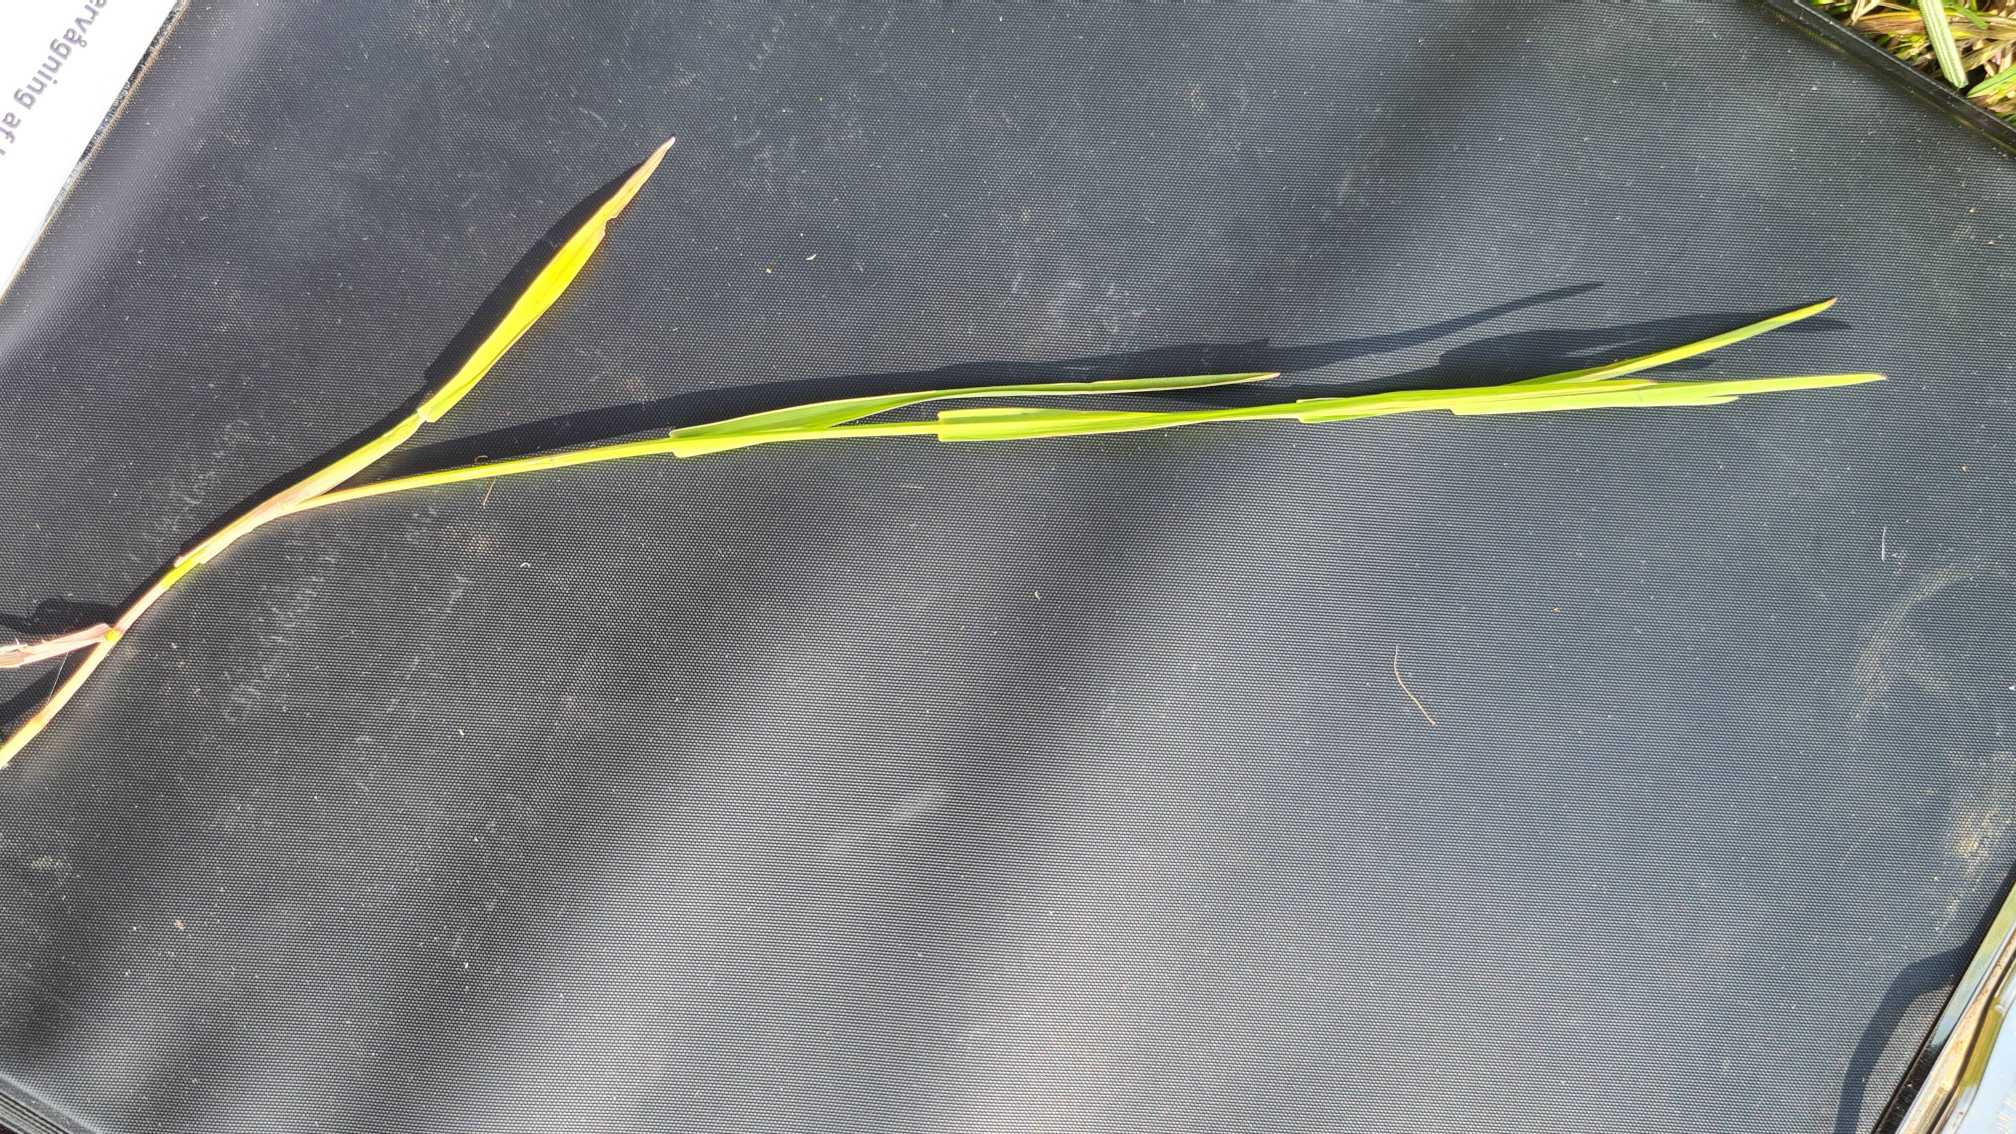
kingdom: Plantae
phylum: Tracheophyta
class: Liliopsida
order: Poales
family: Poaceae
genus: Poa
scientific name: Poa compressa
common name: Fladstrået rapgræs
